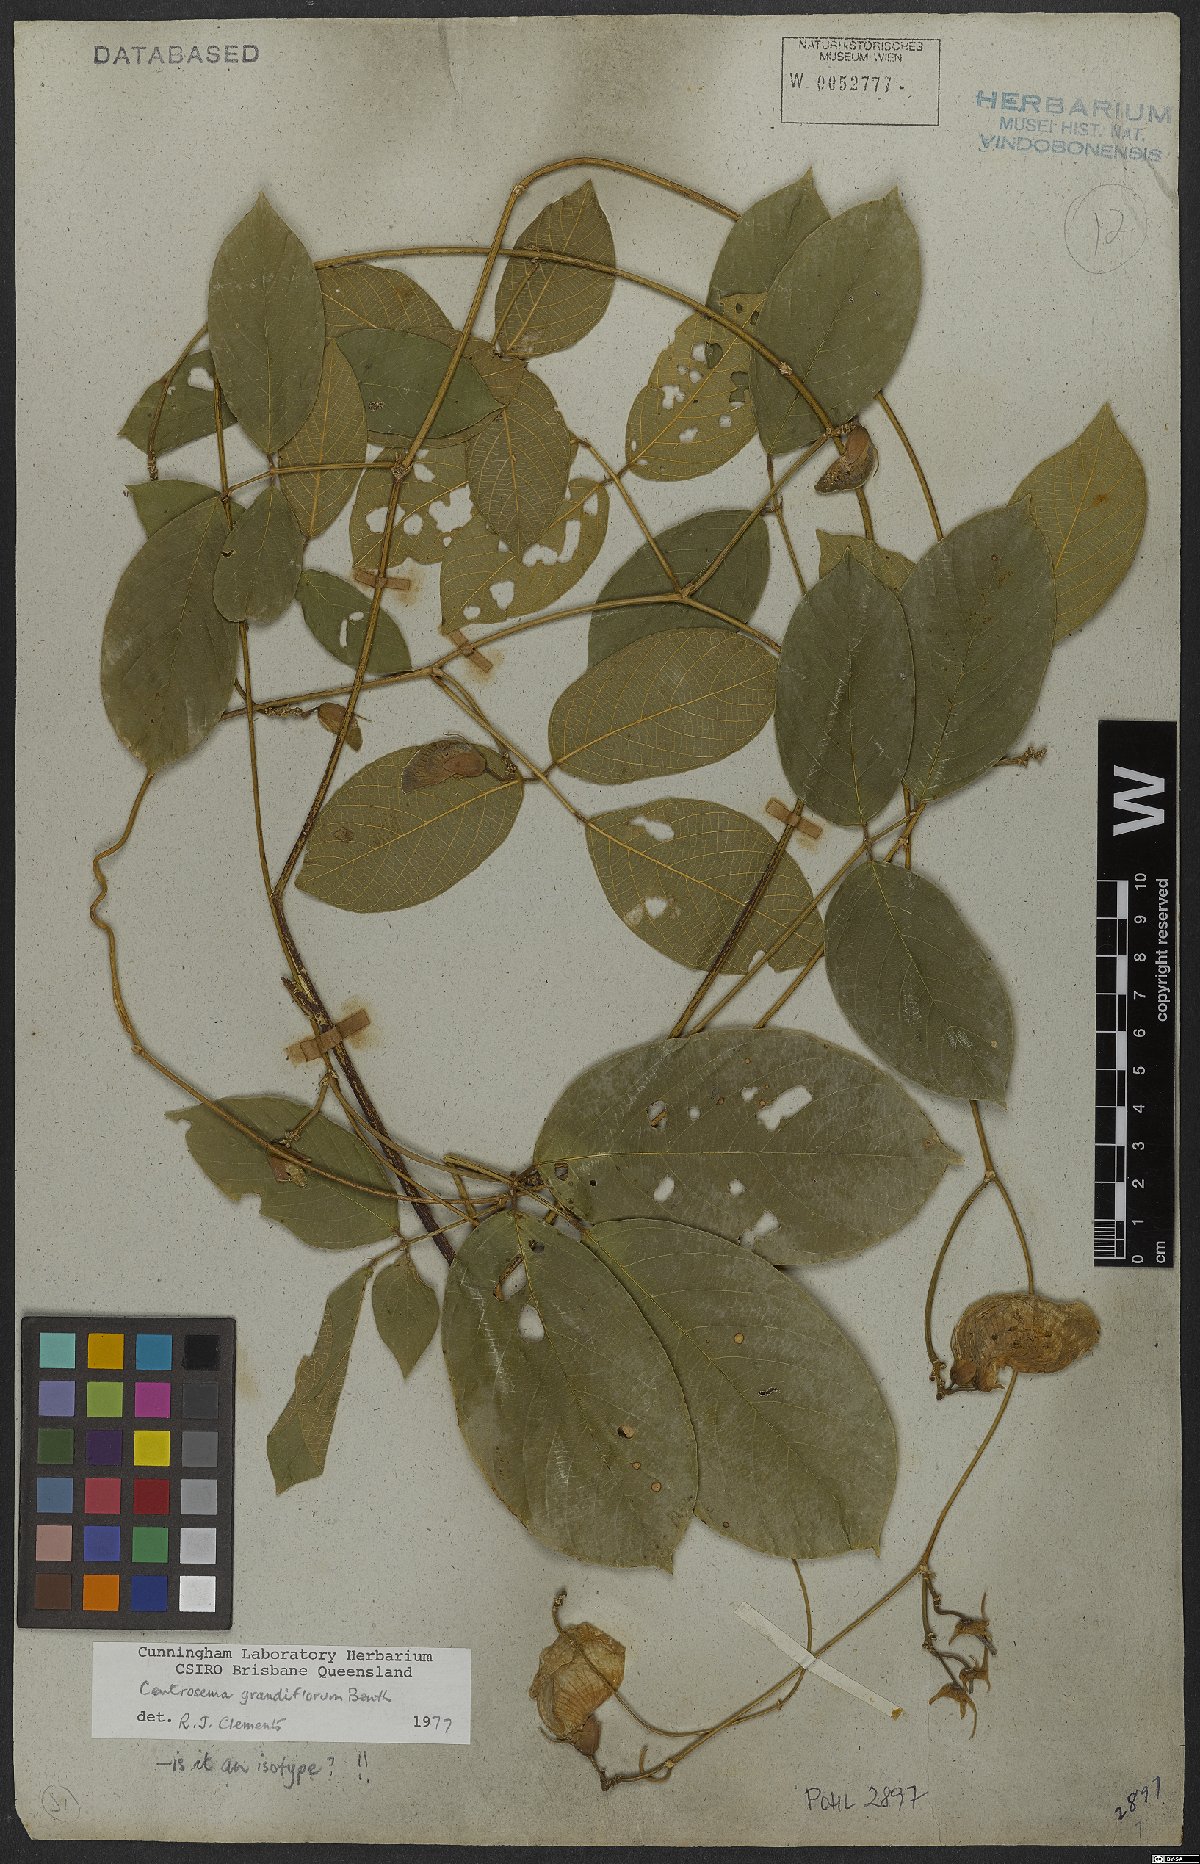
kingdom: Plantae
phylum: Tracheophyta
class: Magnoliopsida
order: Fabales
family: Fabaceae
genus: Centrosema
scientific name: Centrosema grandiflorum
